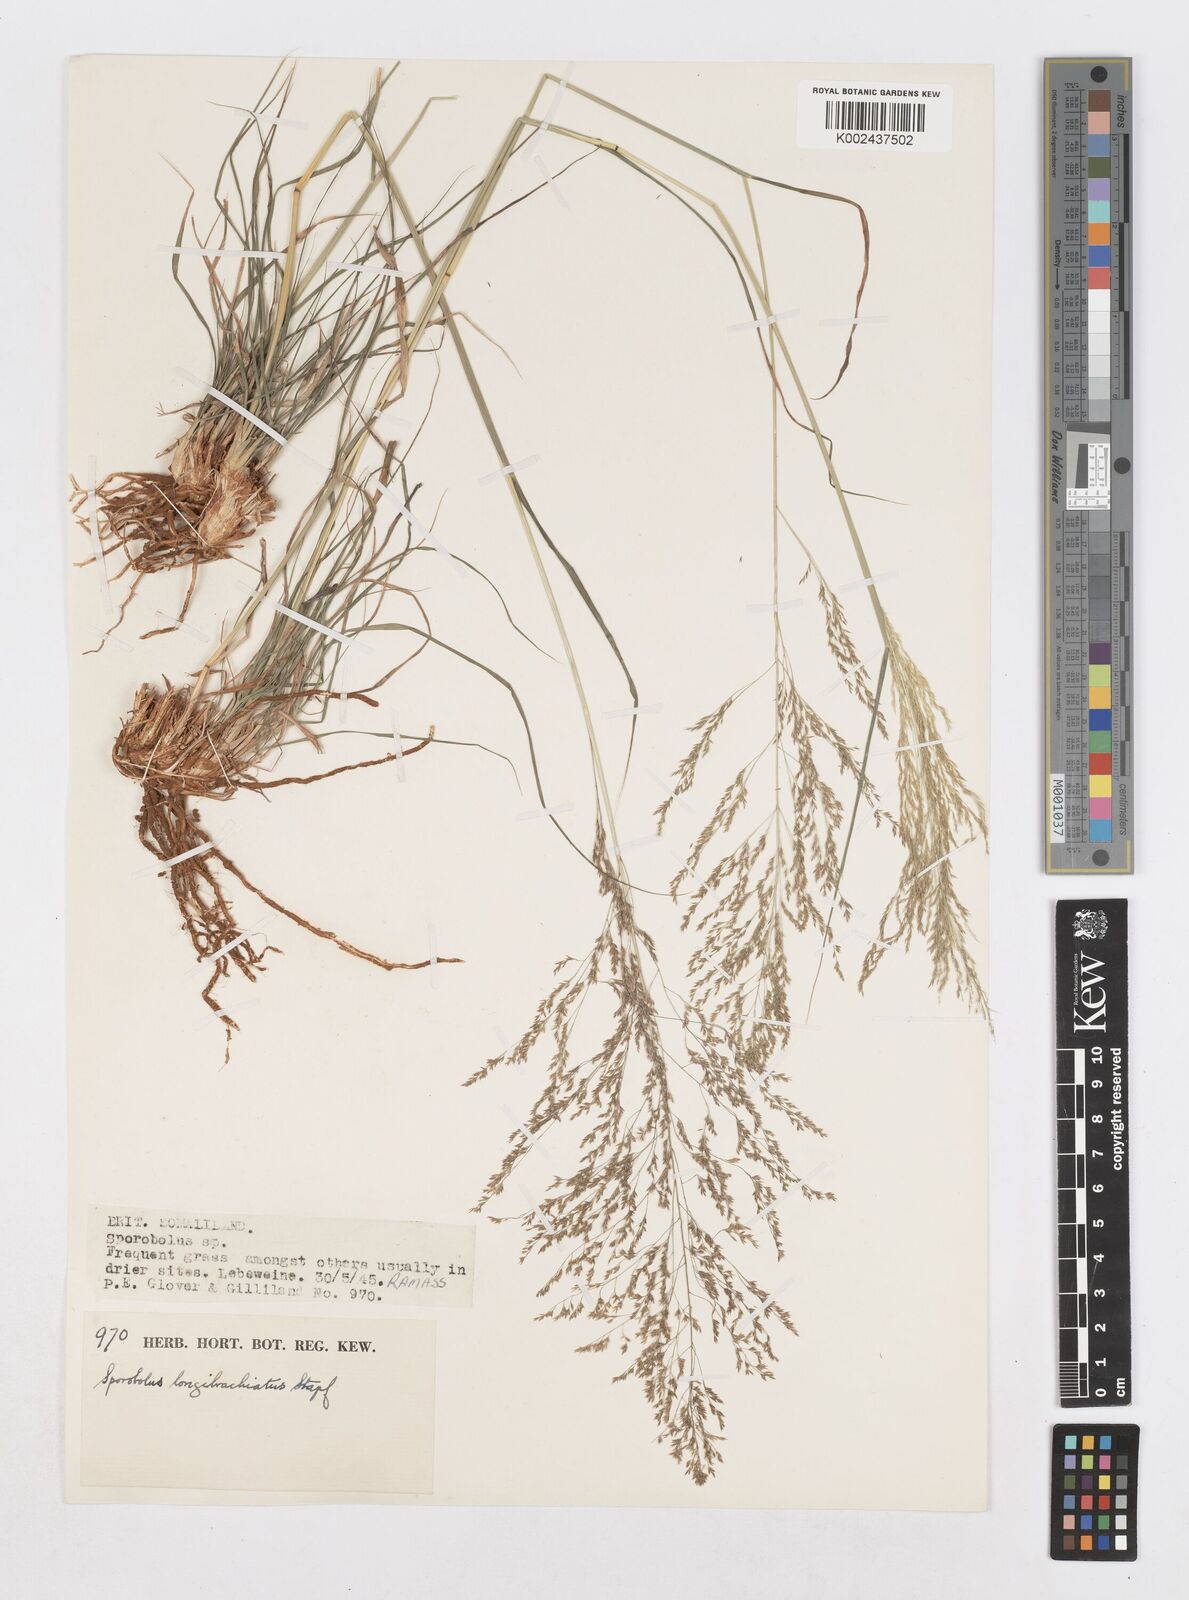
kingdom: Plantae
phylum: Tracheophyta
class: Liliopsida
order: Poales
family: Poaceae
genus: Sporobolus
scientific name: Sporobolus nervosus
